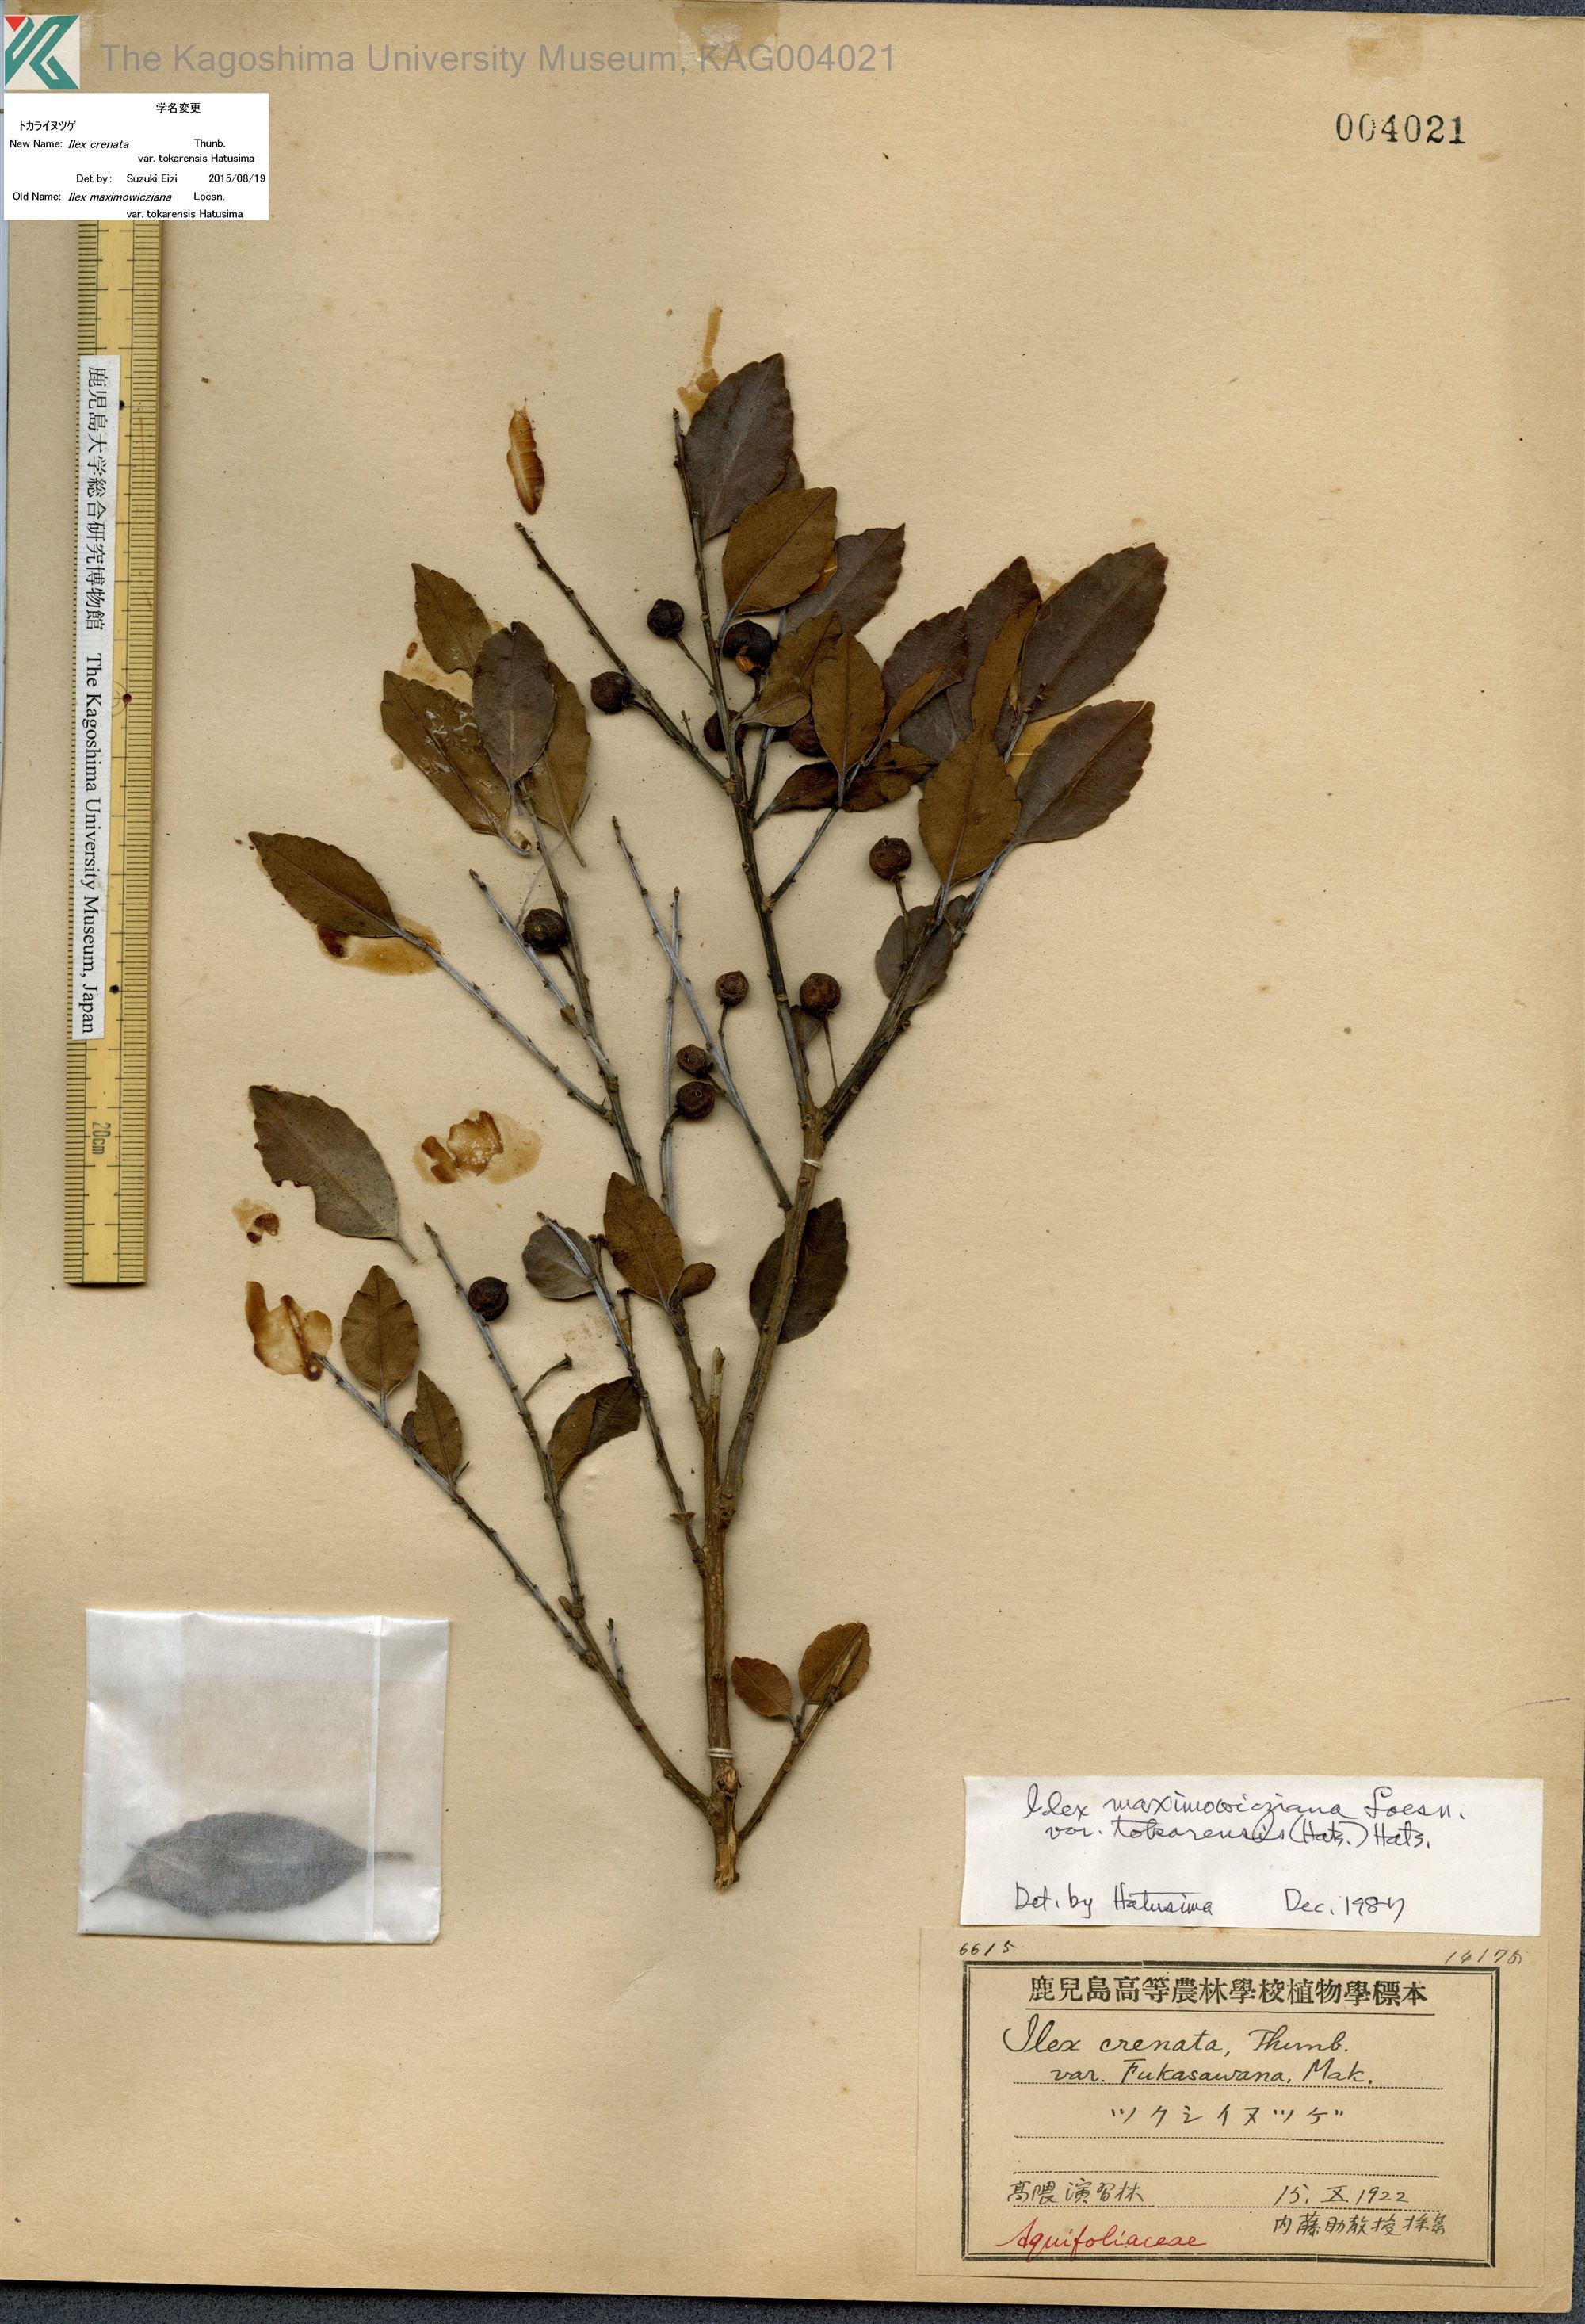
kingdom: Plantae
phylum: Tracheophyta
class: Magnoliopsida
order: Aquifoliales
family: Aquifoliaceae
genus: Ilex
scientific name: Ilex crenata
